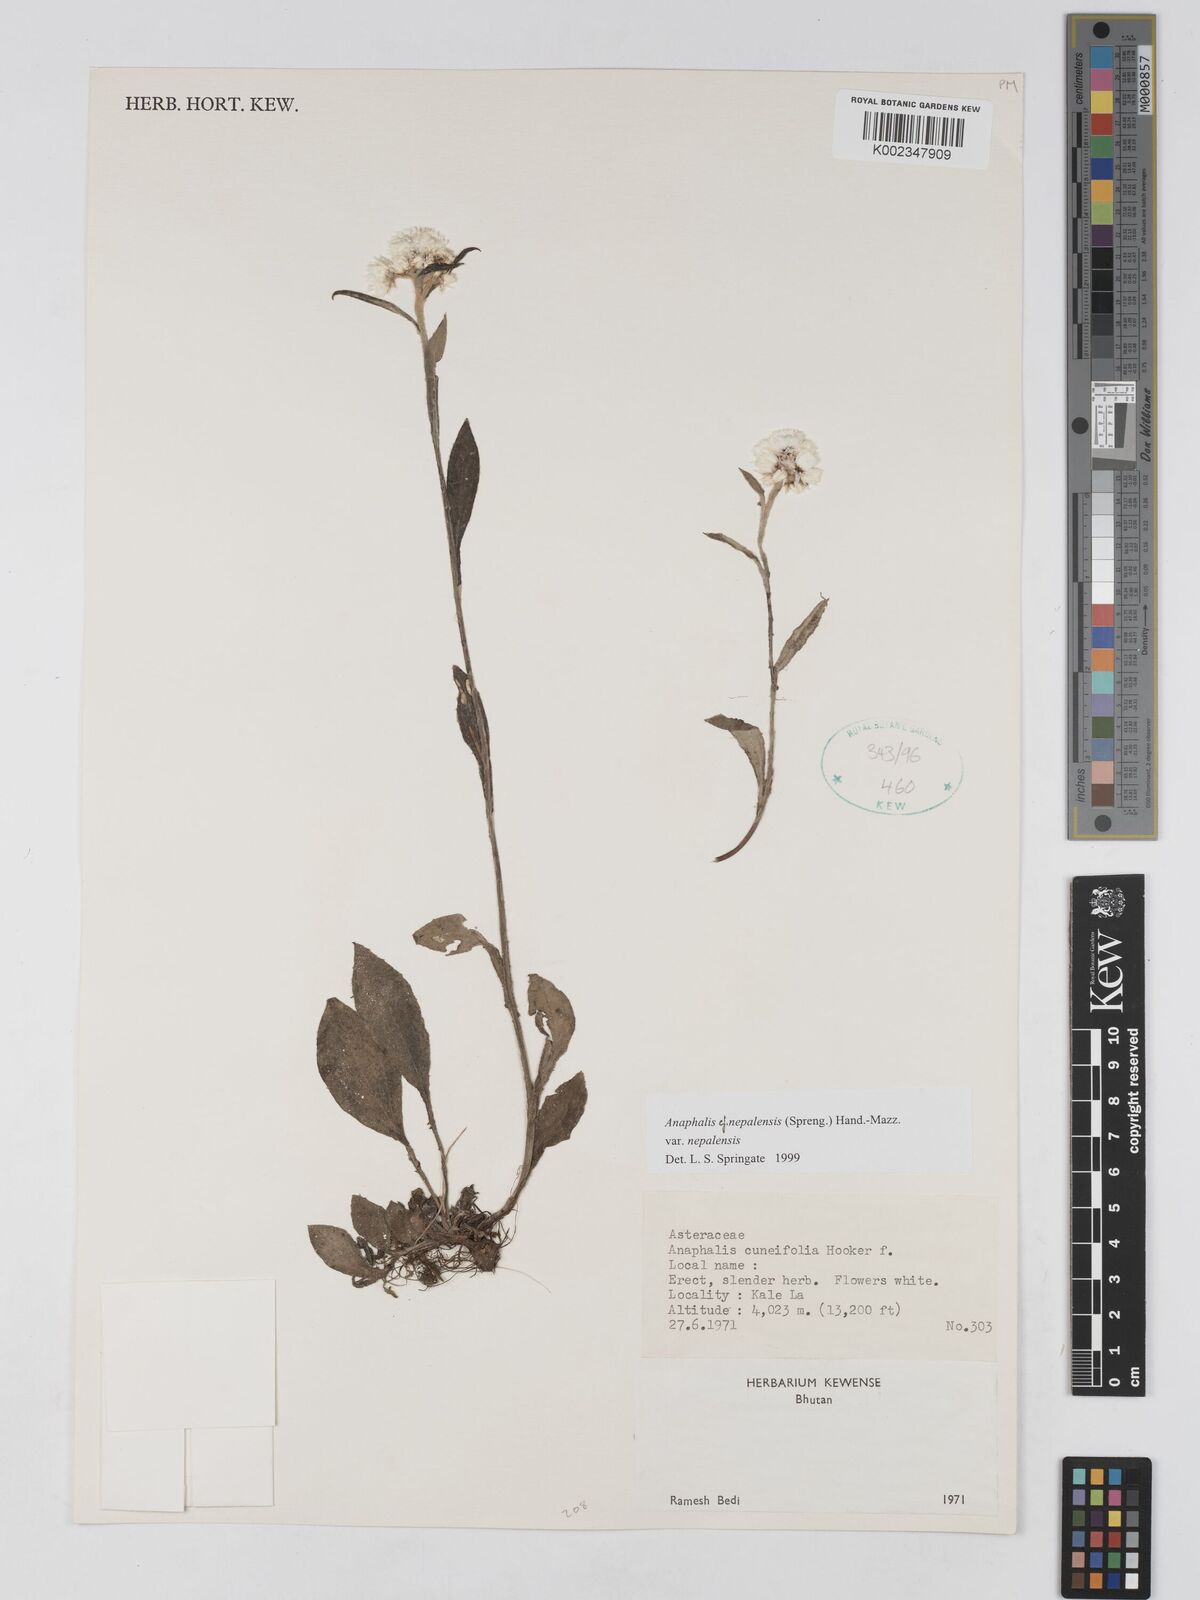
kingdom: Plantae
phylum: Tracheophyta
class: Magnoliopsida
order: Asterales
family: Asteraceae
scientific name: Asteraceae
